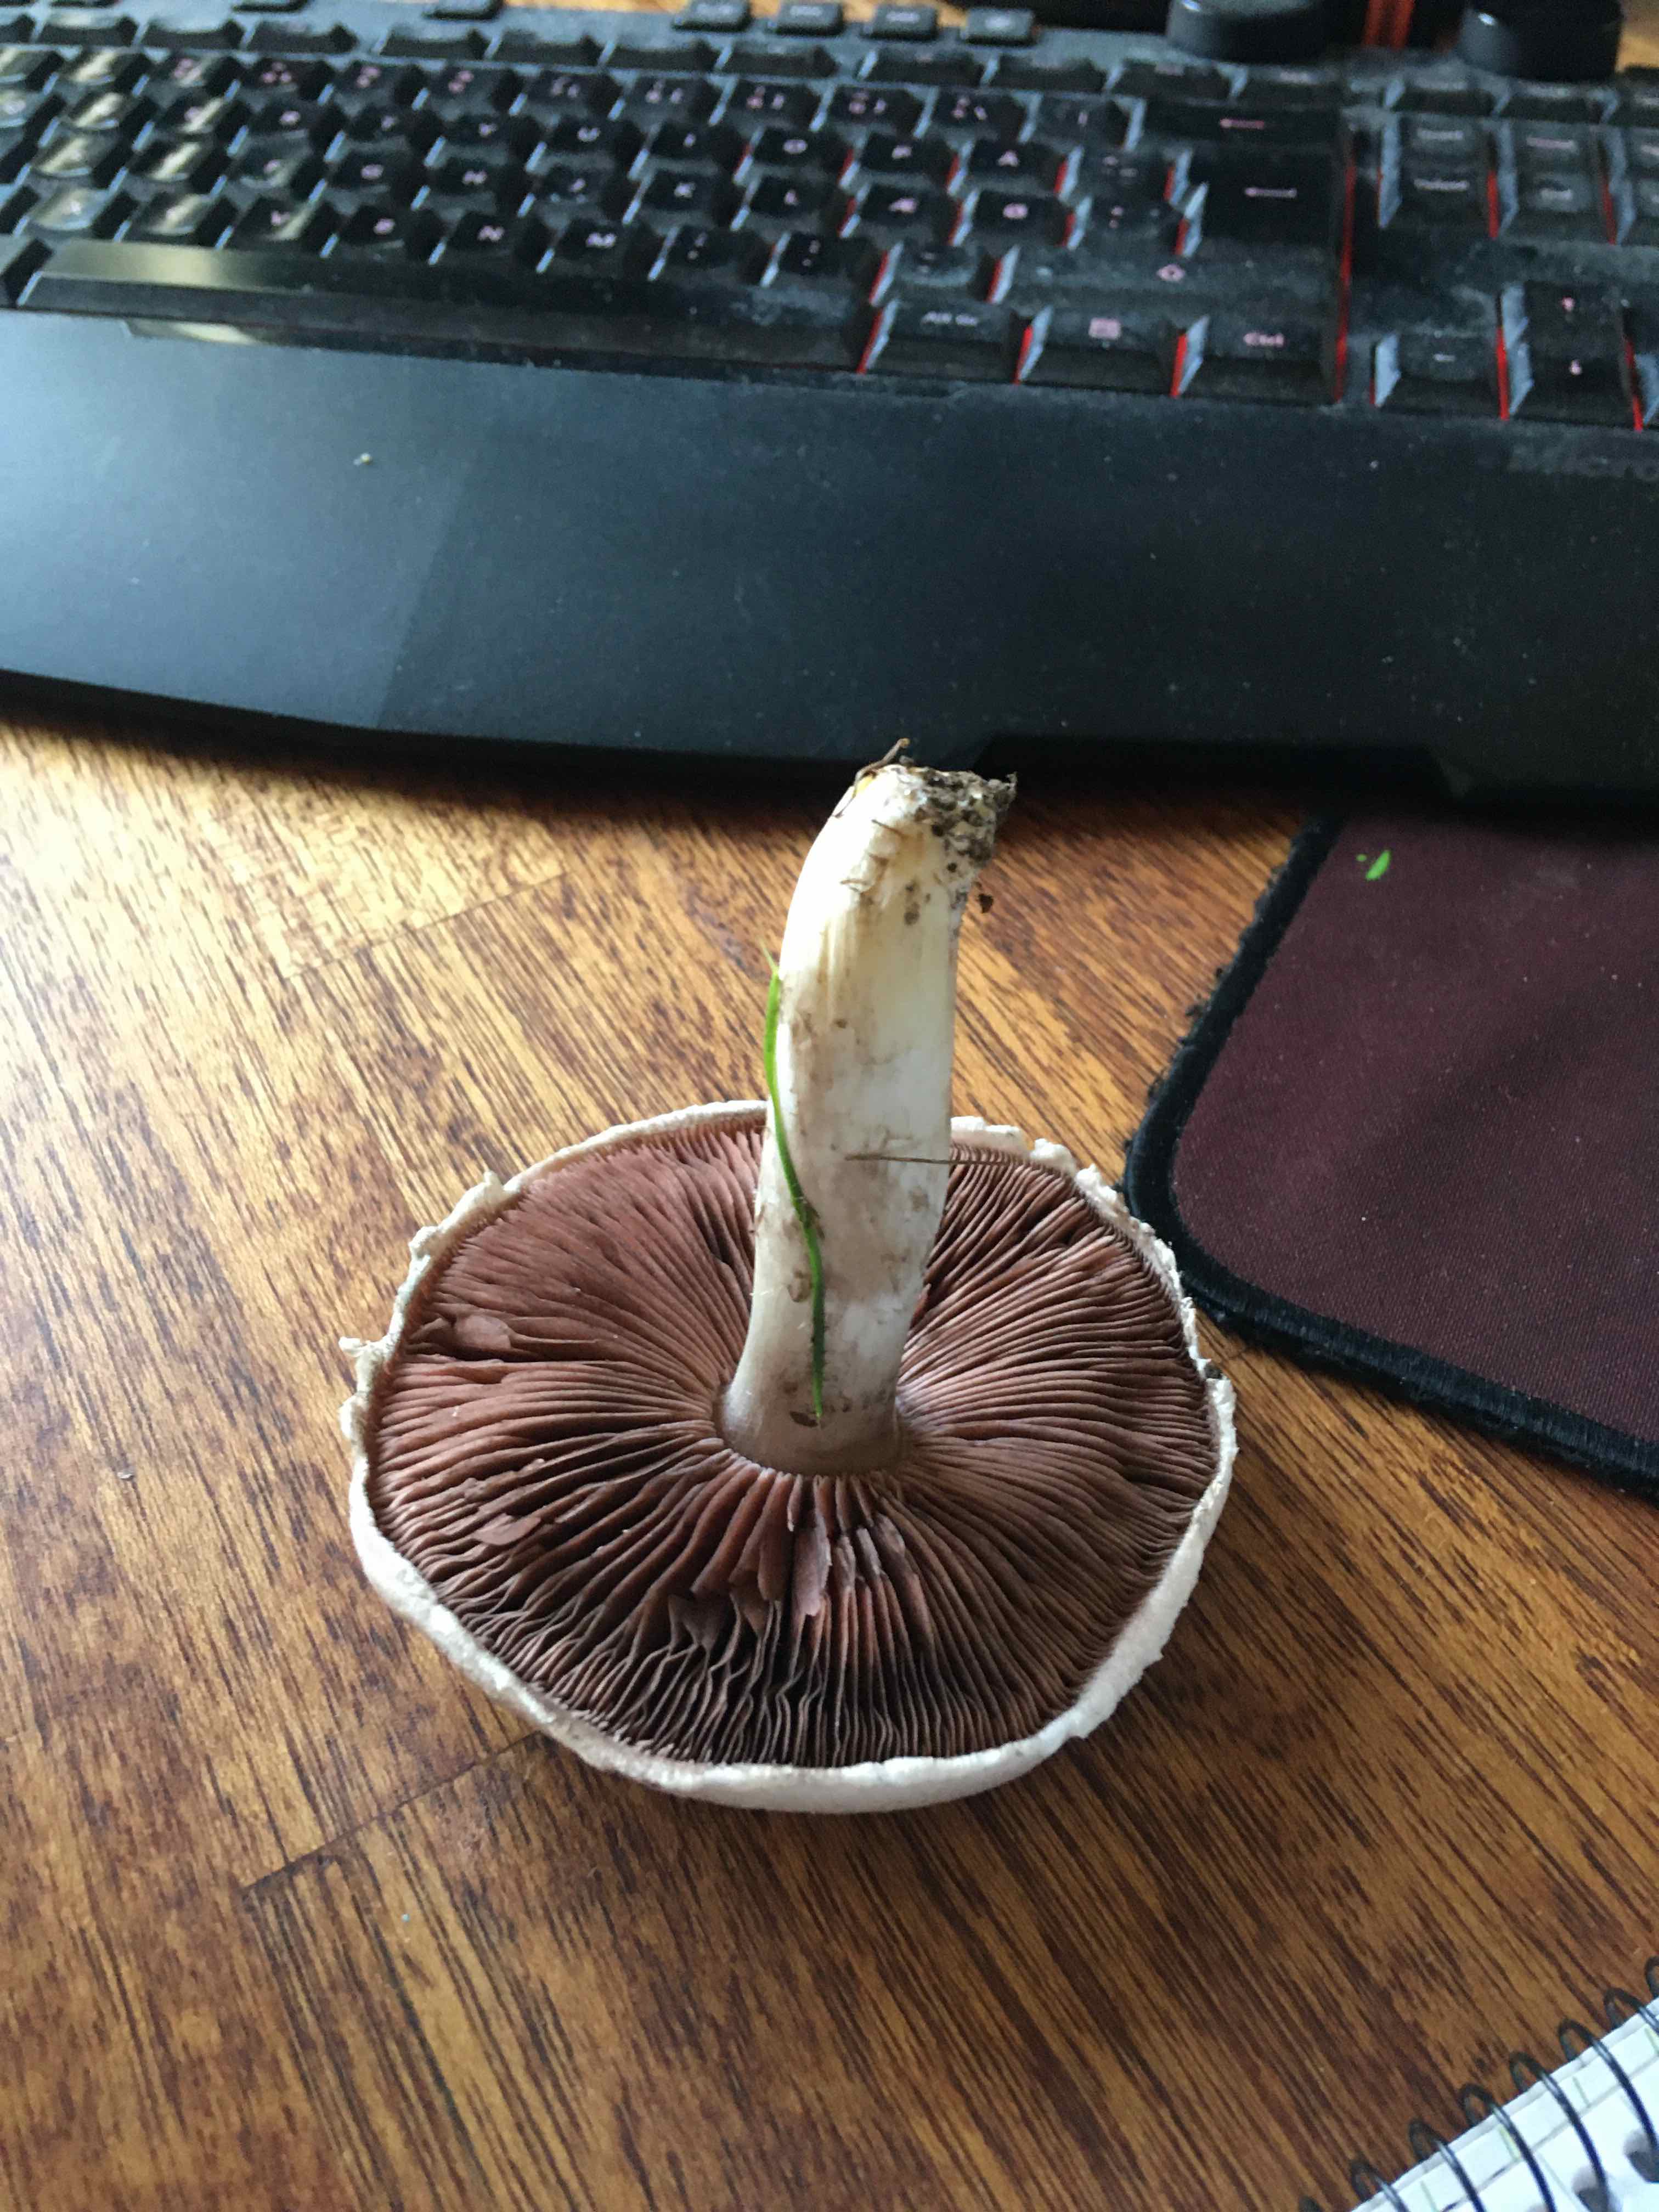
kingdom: Fungi
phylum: Basidiomycota
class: Agaricomycetes
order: Agaricales
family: Agaricaceae
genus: Agaricus
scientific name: Agaricus campestris
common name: mark-champignon
